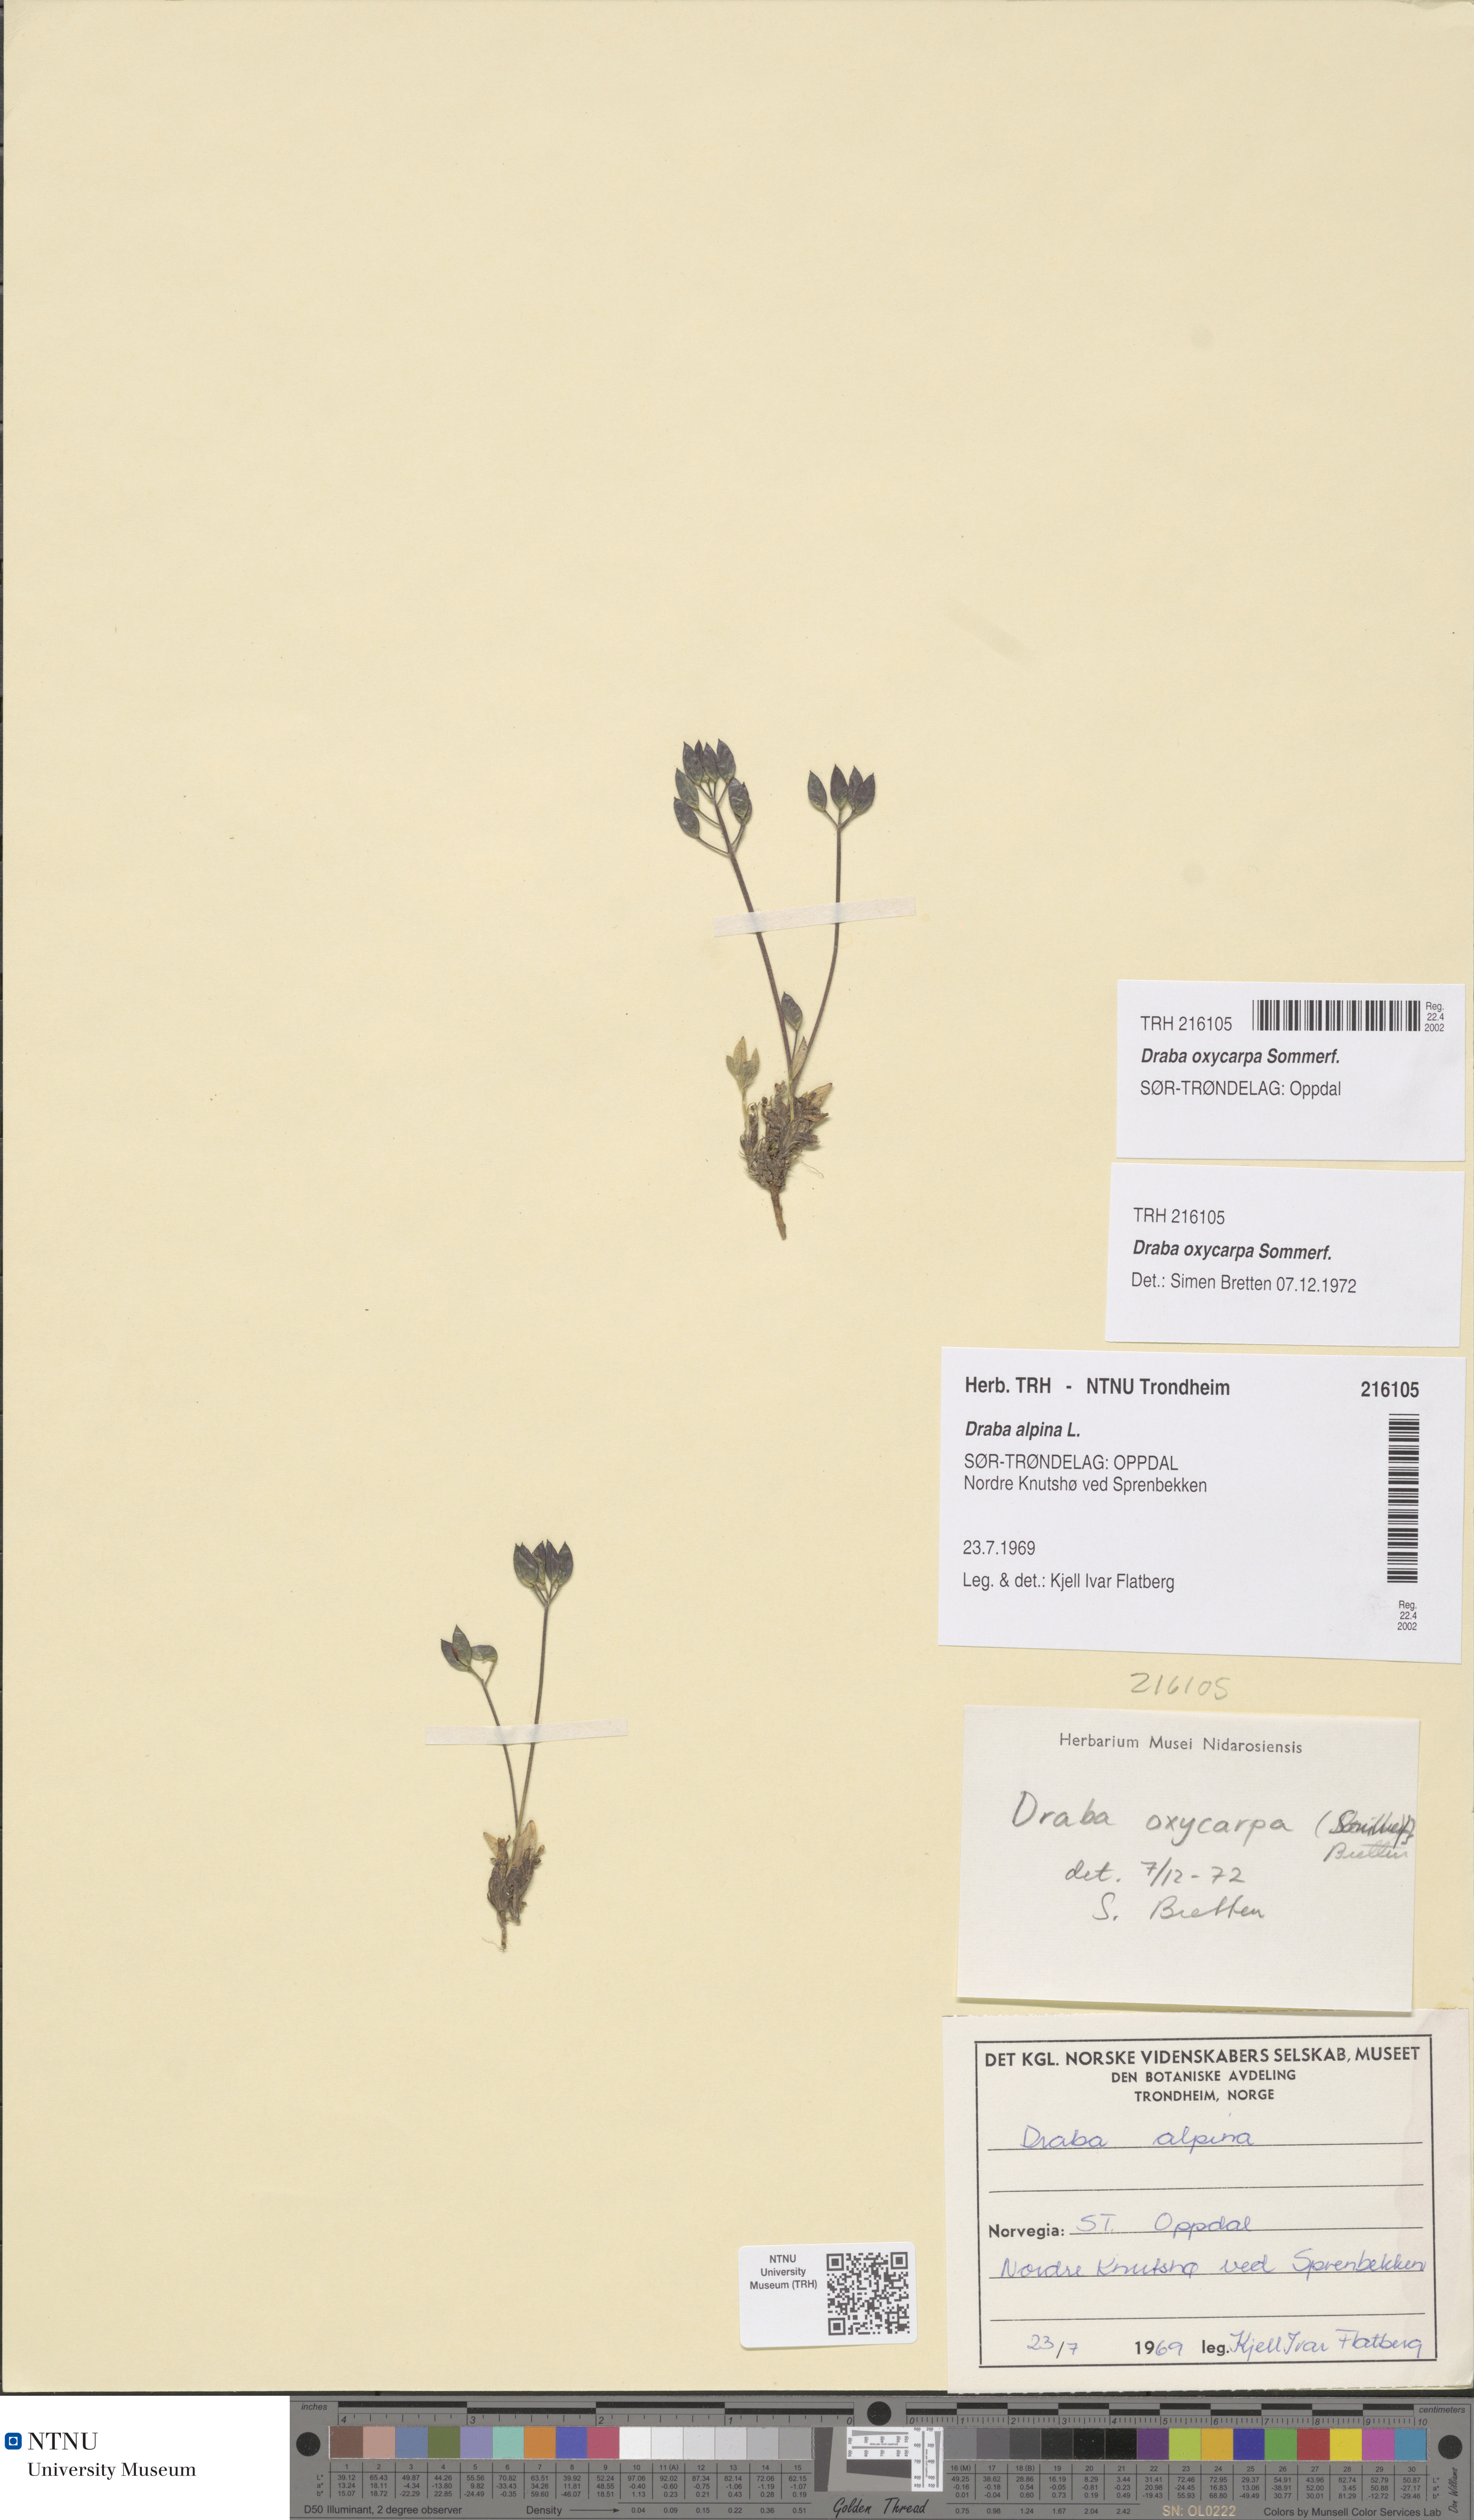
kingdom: Plantae
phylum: Tracheophyta
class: Magnoliopsida
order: Brassicales
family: Brassicaceae
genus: Draba
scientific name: Draba oxycarpa
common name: Sharp-fruited whitlow-grass
